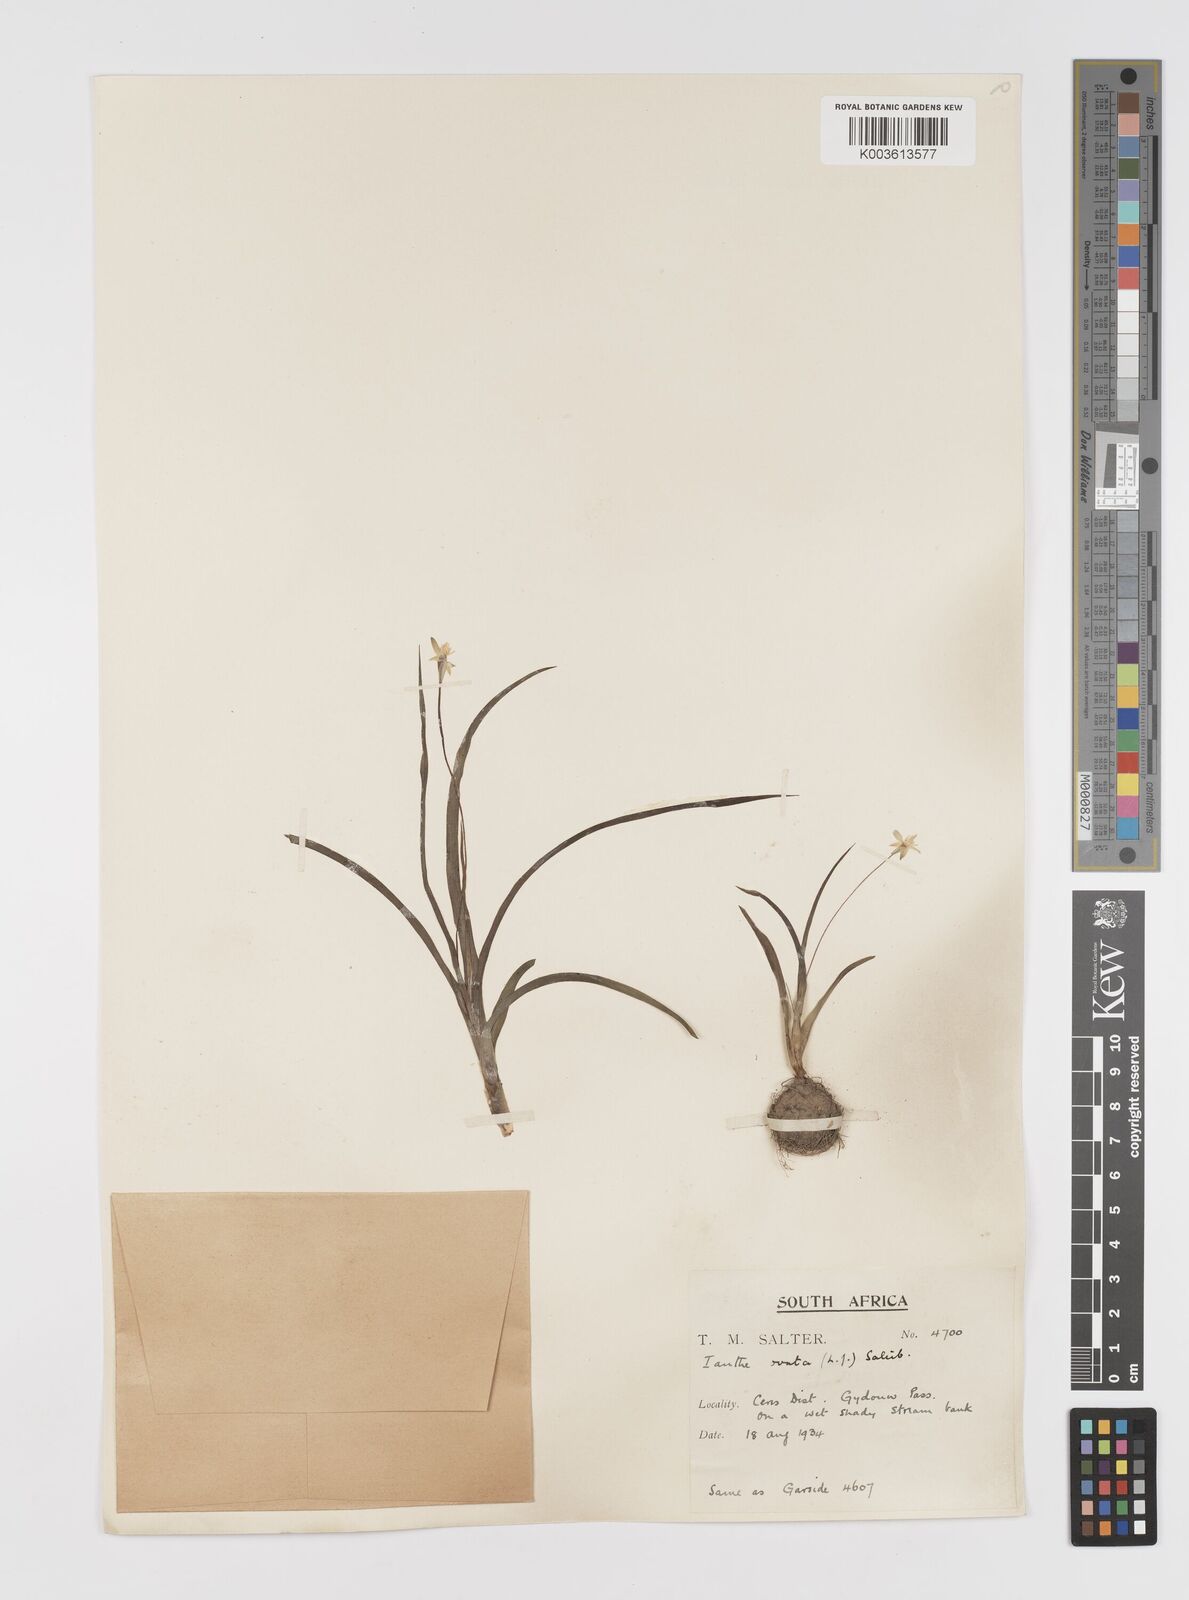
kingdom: Plantae
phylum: Tracheophyta
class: Liliopsida
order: Asparagales
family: Hypoxidaceae
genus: Pauridia
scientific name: Pauridia ovata
